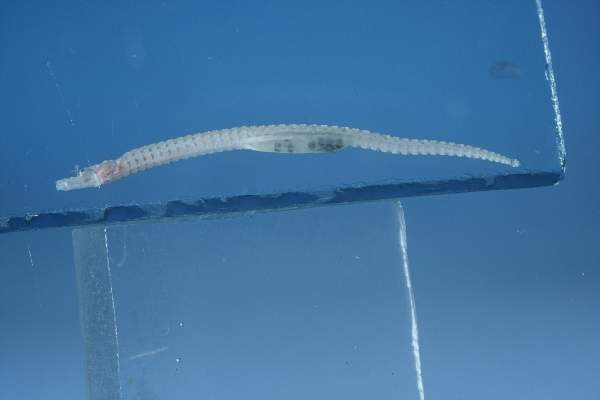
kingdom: Animalia
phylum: Chordata
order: Syngnathiformes
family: Syngnathidae
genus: Cosmocampus
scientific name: Cosmocampus banneri
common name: Banner's pipefish
